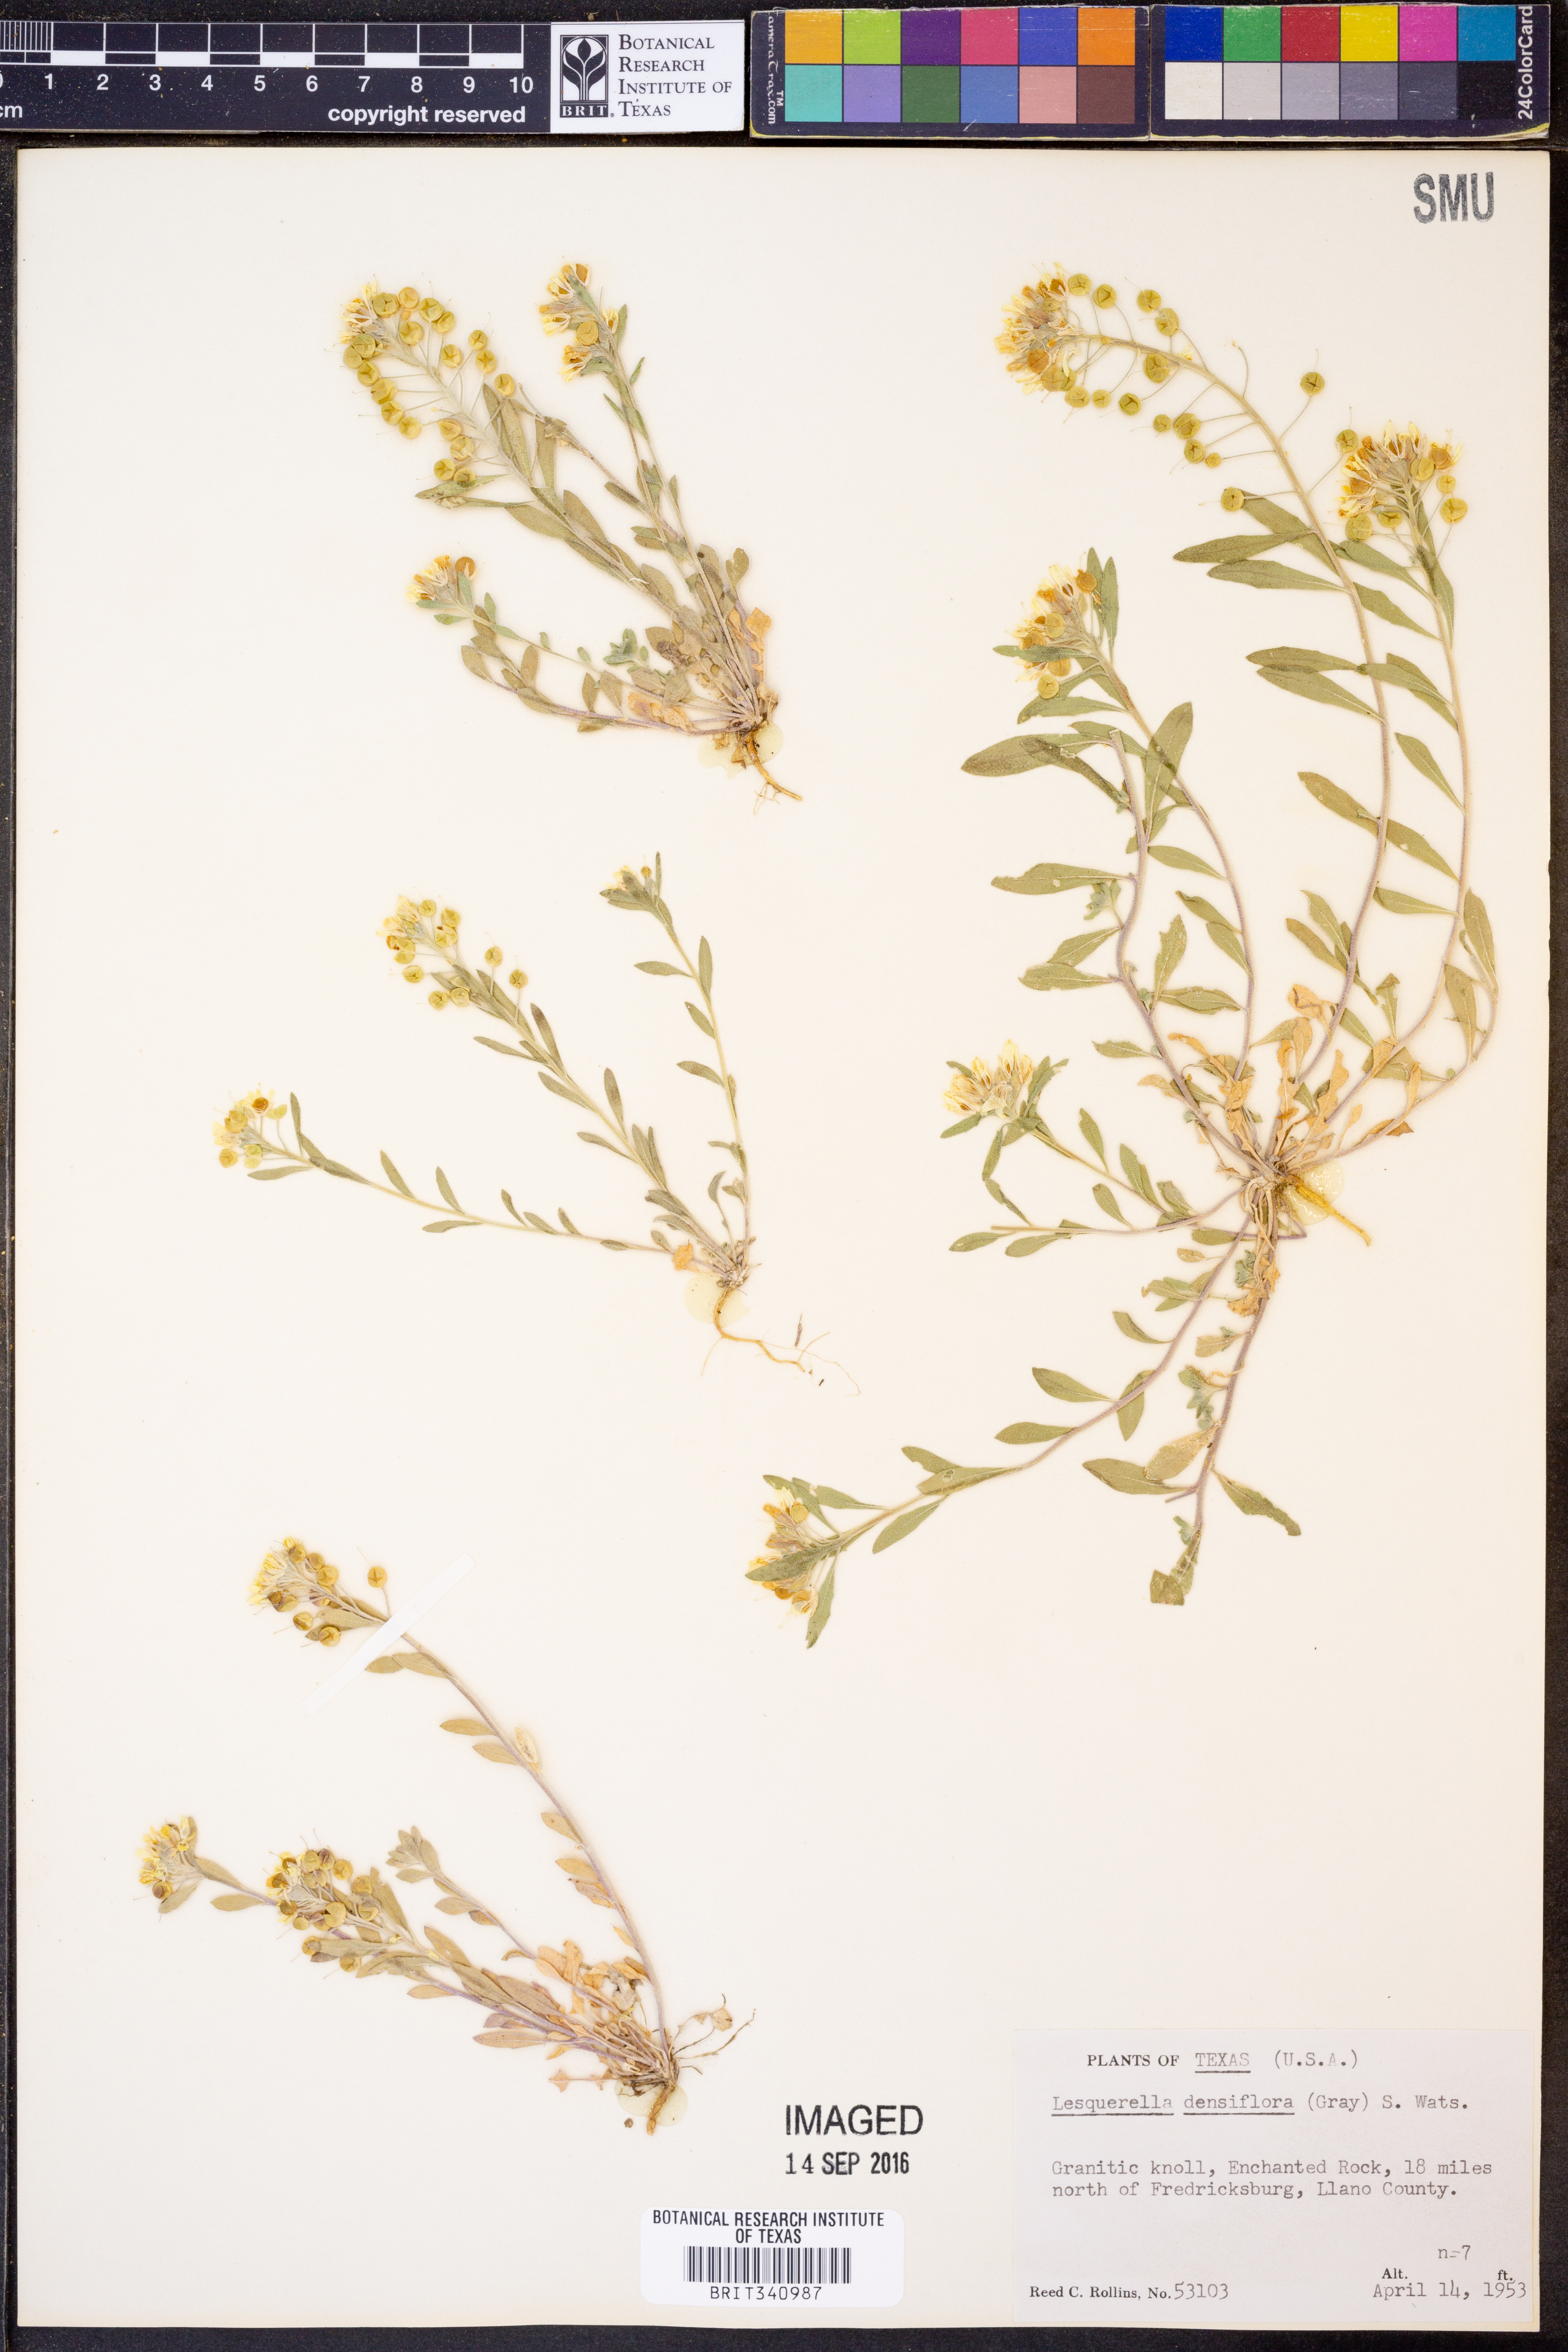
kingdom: Plantae
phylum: Tracheophyta
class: Magnoliopsida
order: Brassicales
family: Brassicaceae
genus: Physaria
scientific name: Physaria densiflora
